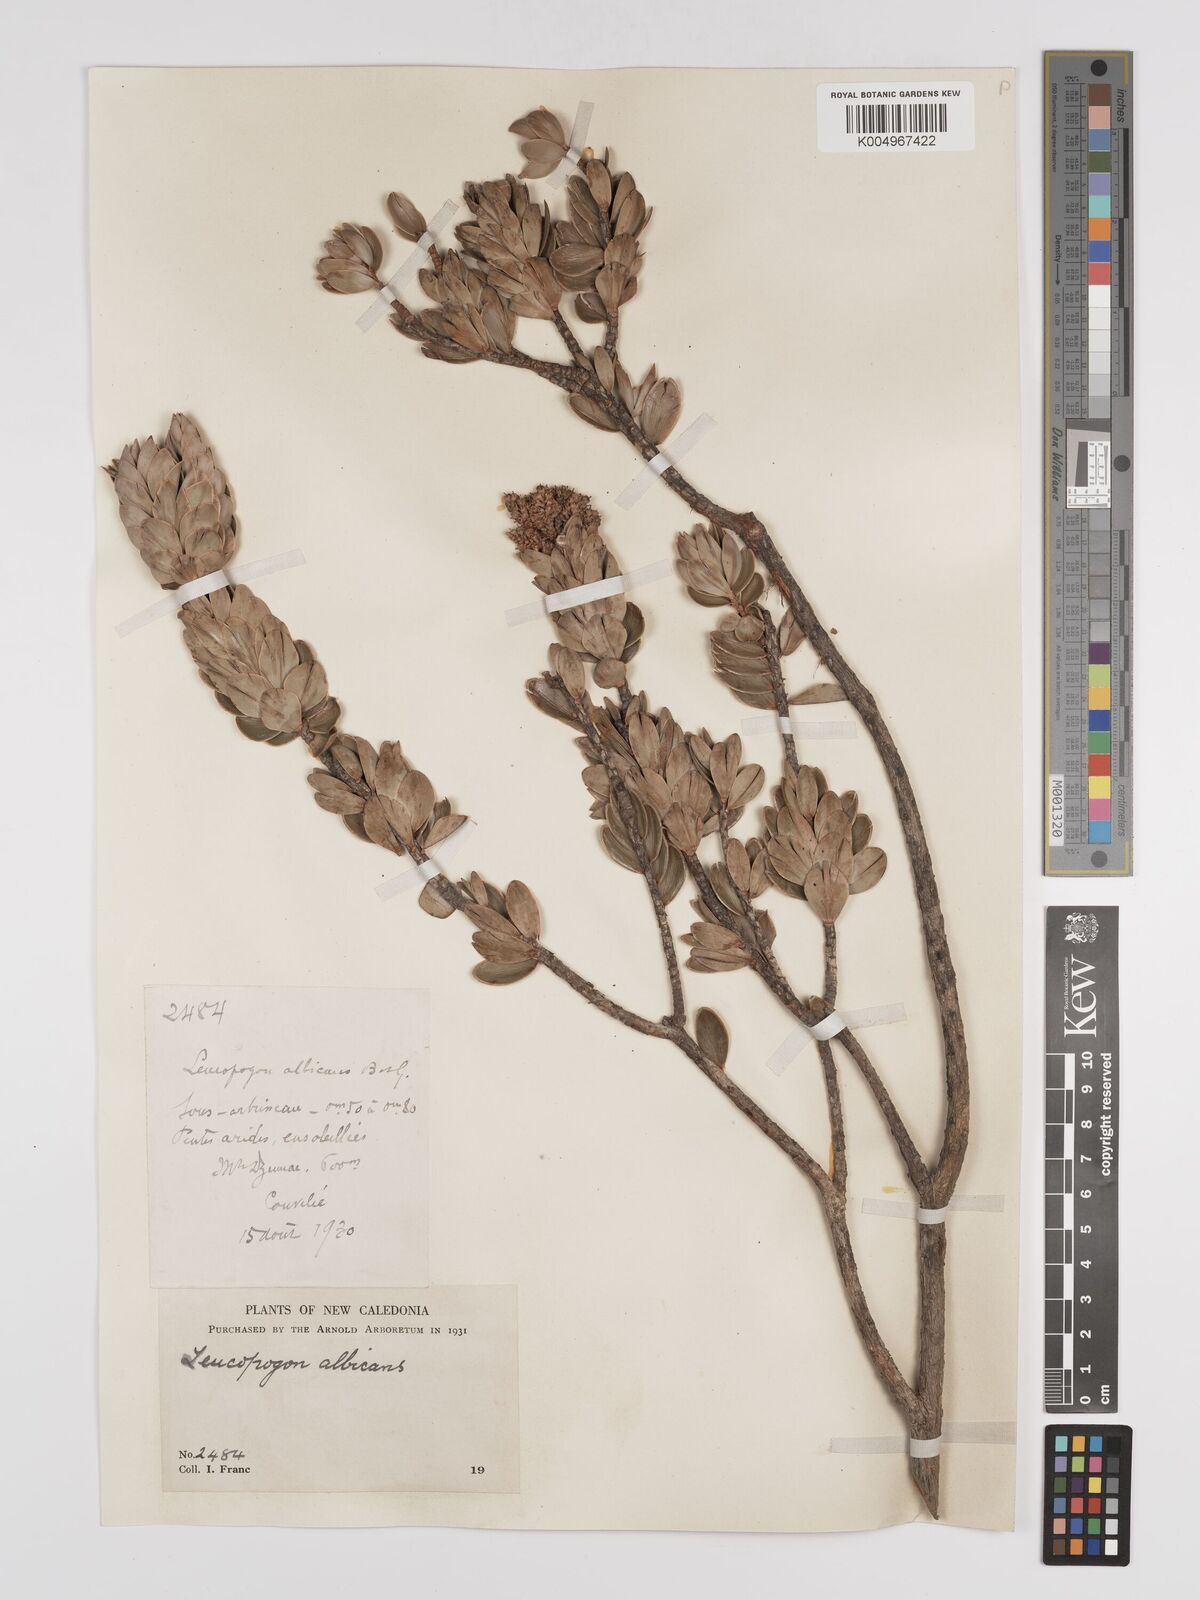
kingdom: Plantae
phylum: Tracheophyta
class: Magnoliopsida
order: Ericales
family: Ericaceae
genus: Cyathopsis
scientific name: Cyathopsis albicans
